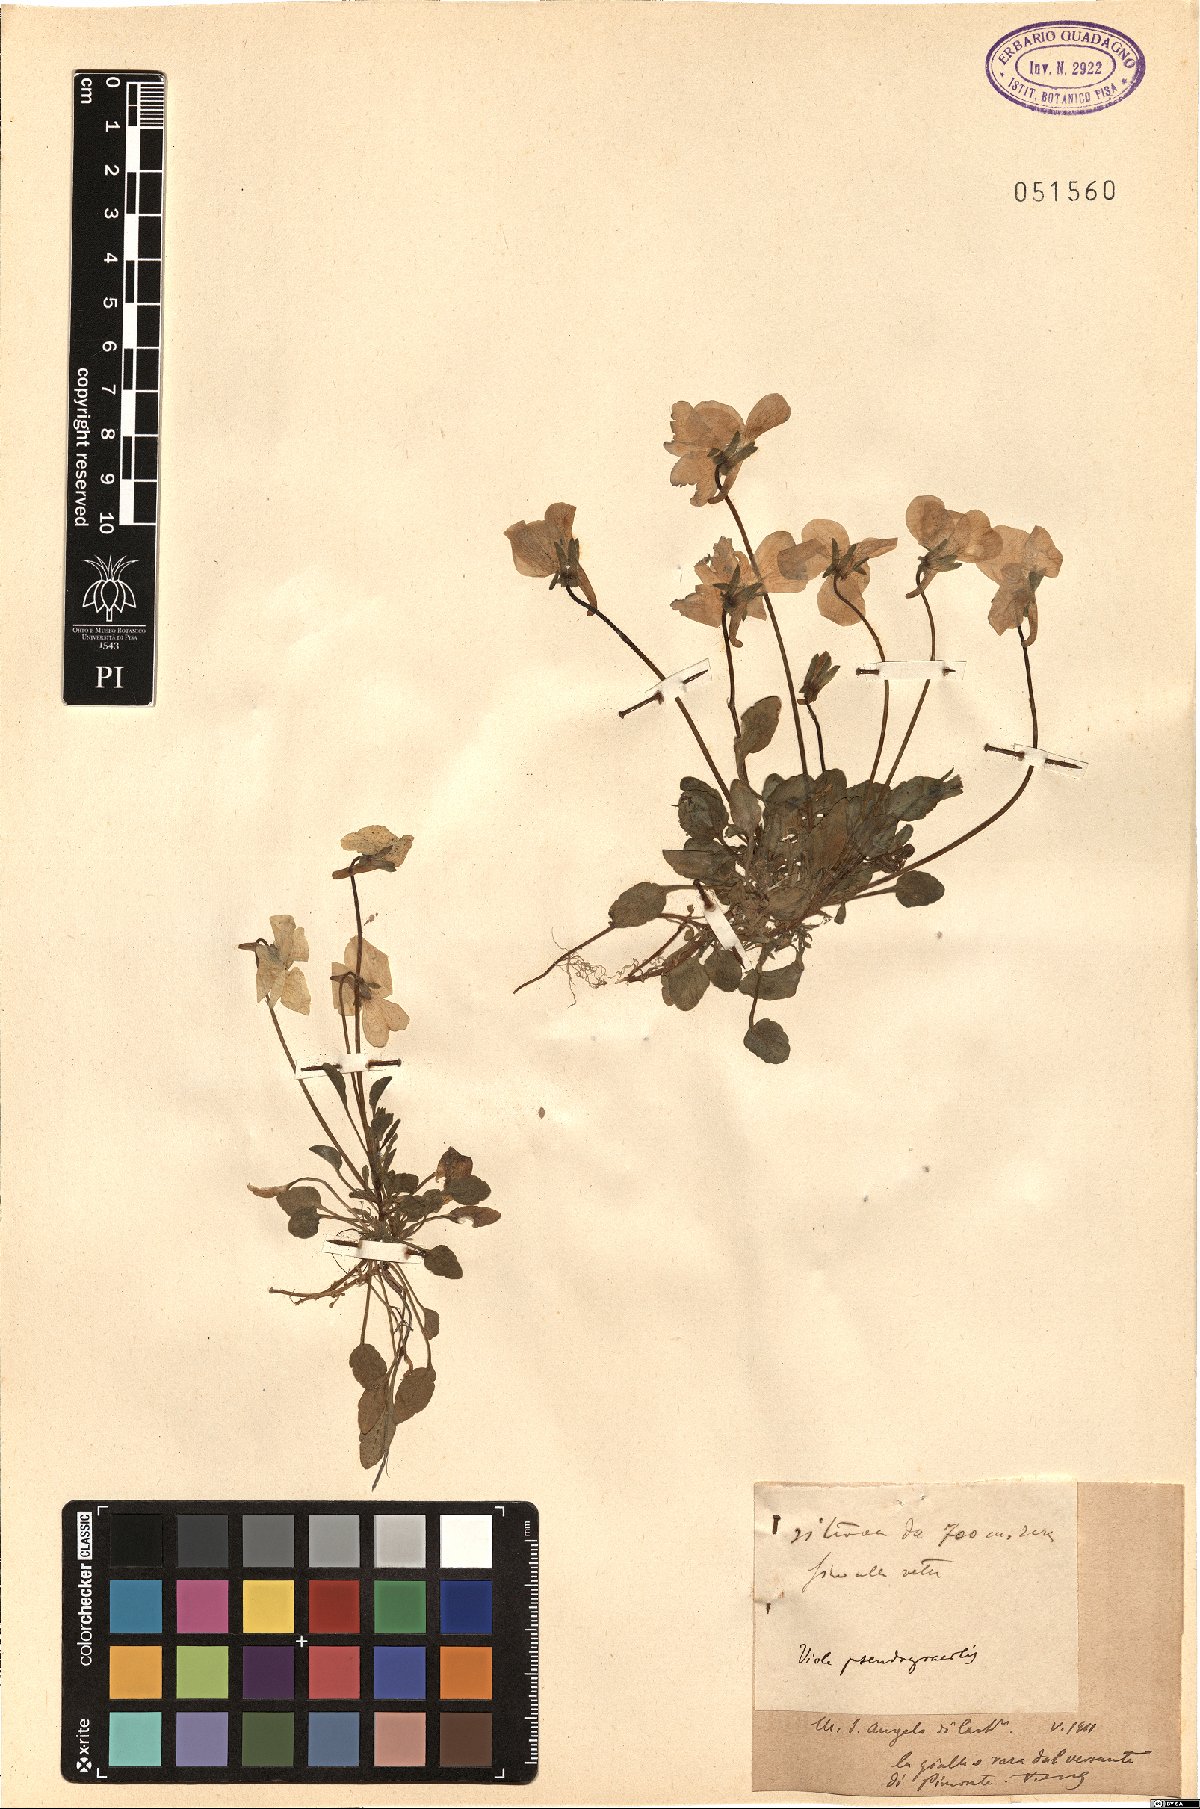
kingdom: Plantae
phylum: Tracheophyta
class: Magnoliopsida
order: Malpighiales
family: Violaceae
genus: Viola
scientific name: Viola pseudogracilis
